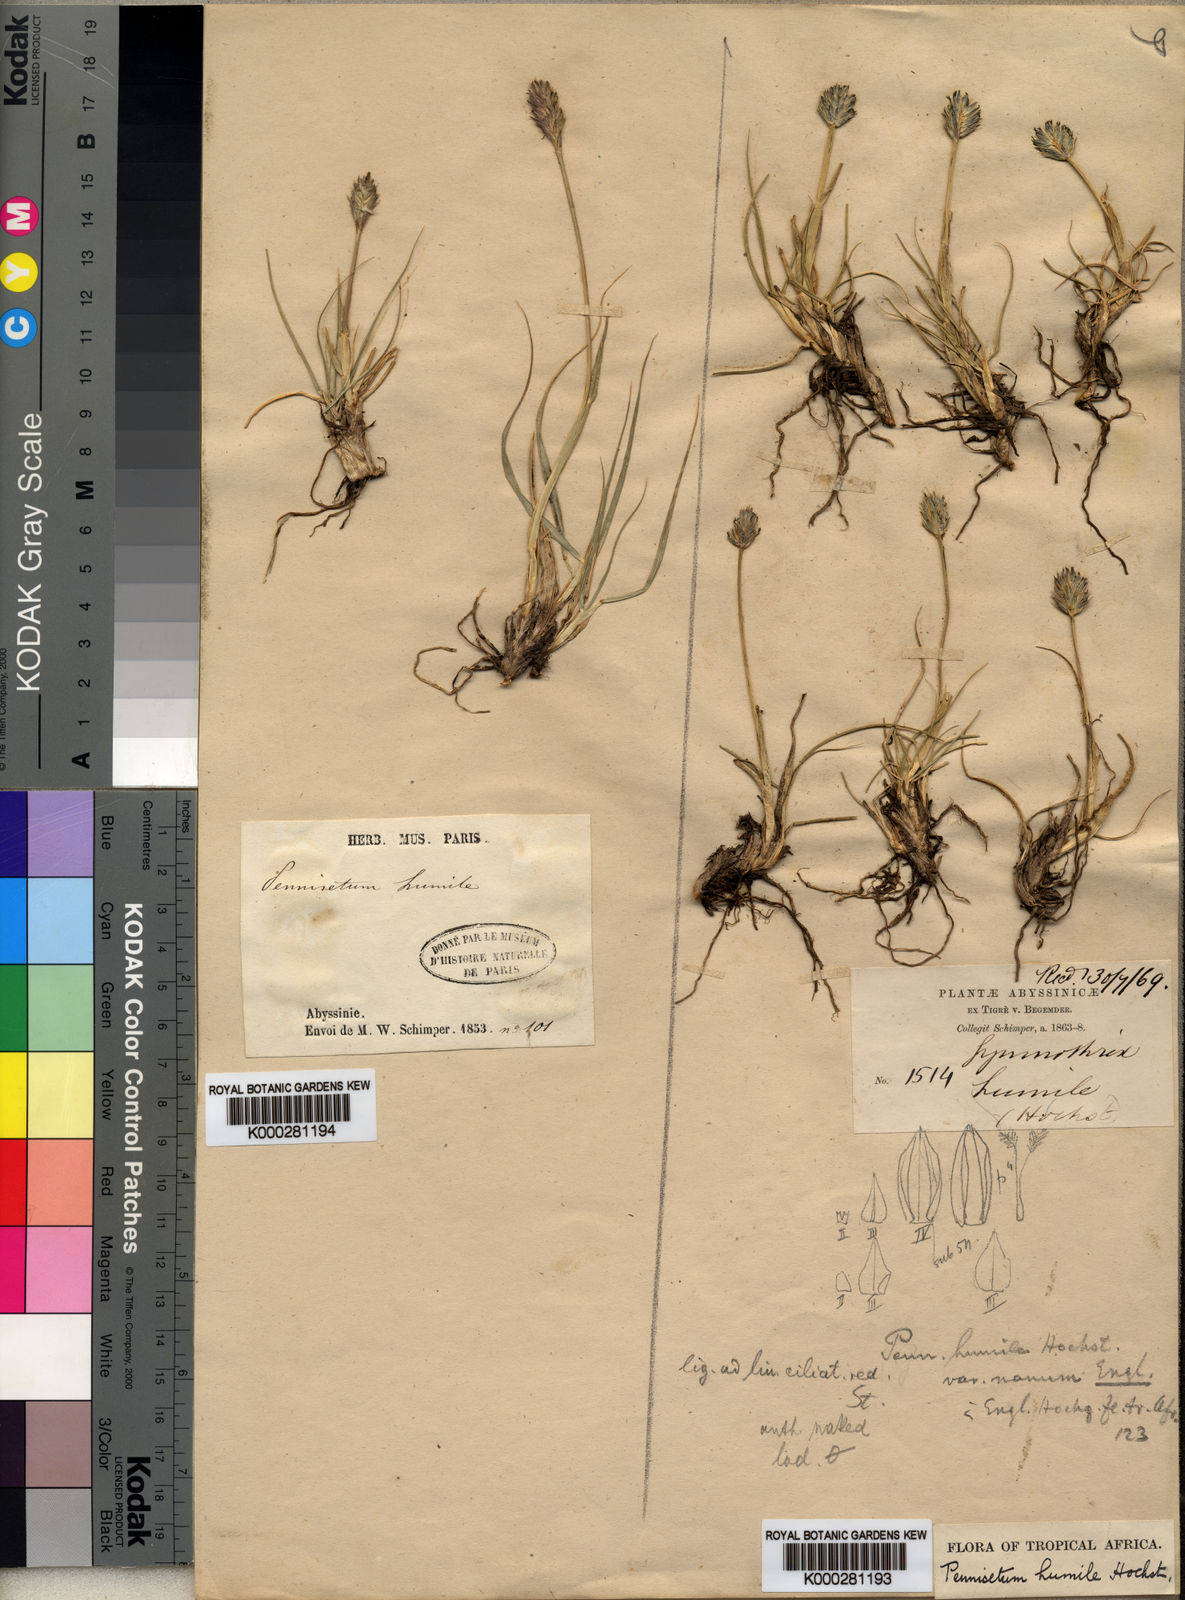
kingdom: Plantae
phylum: Tracheophyta
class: Liliopsida
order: Poales
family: Poaceae
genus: Cenchrus
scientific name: Cenchrus nanus
